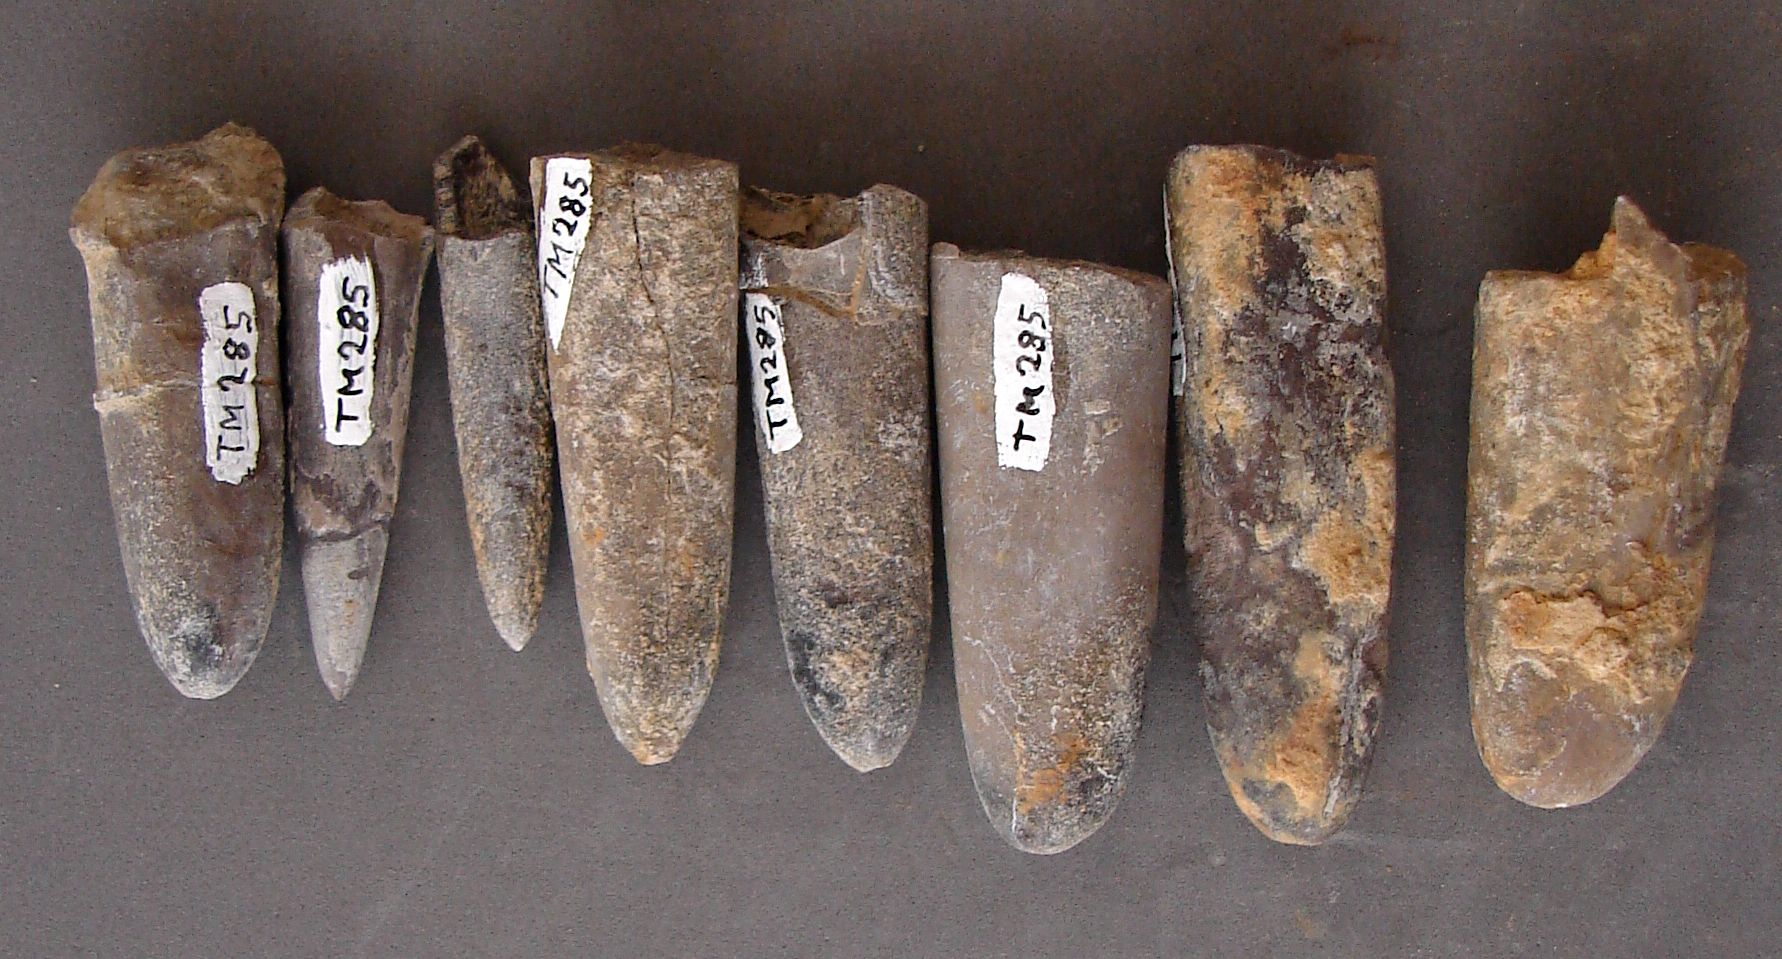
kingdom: Animalia
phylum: Mollusca
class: Cephalopoda
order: Belemnitida
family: Megateuthididae
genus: Dactyloteuthis
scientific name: Dactyloteuthis
